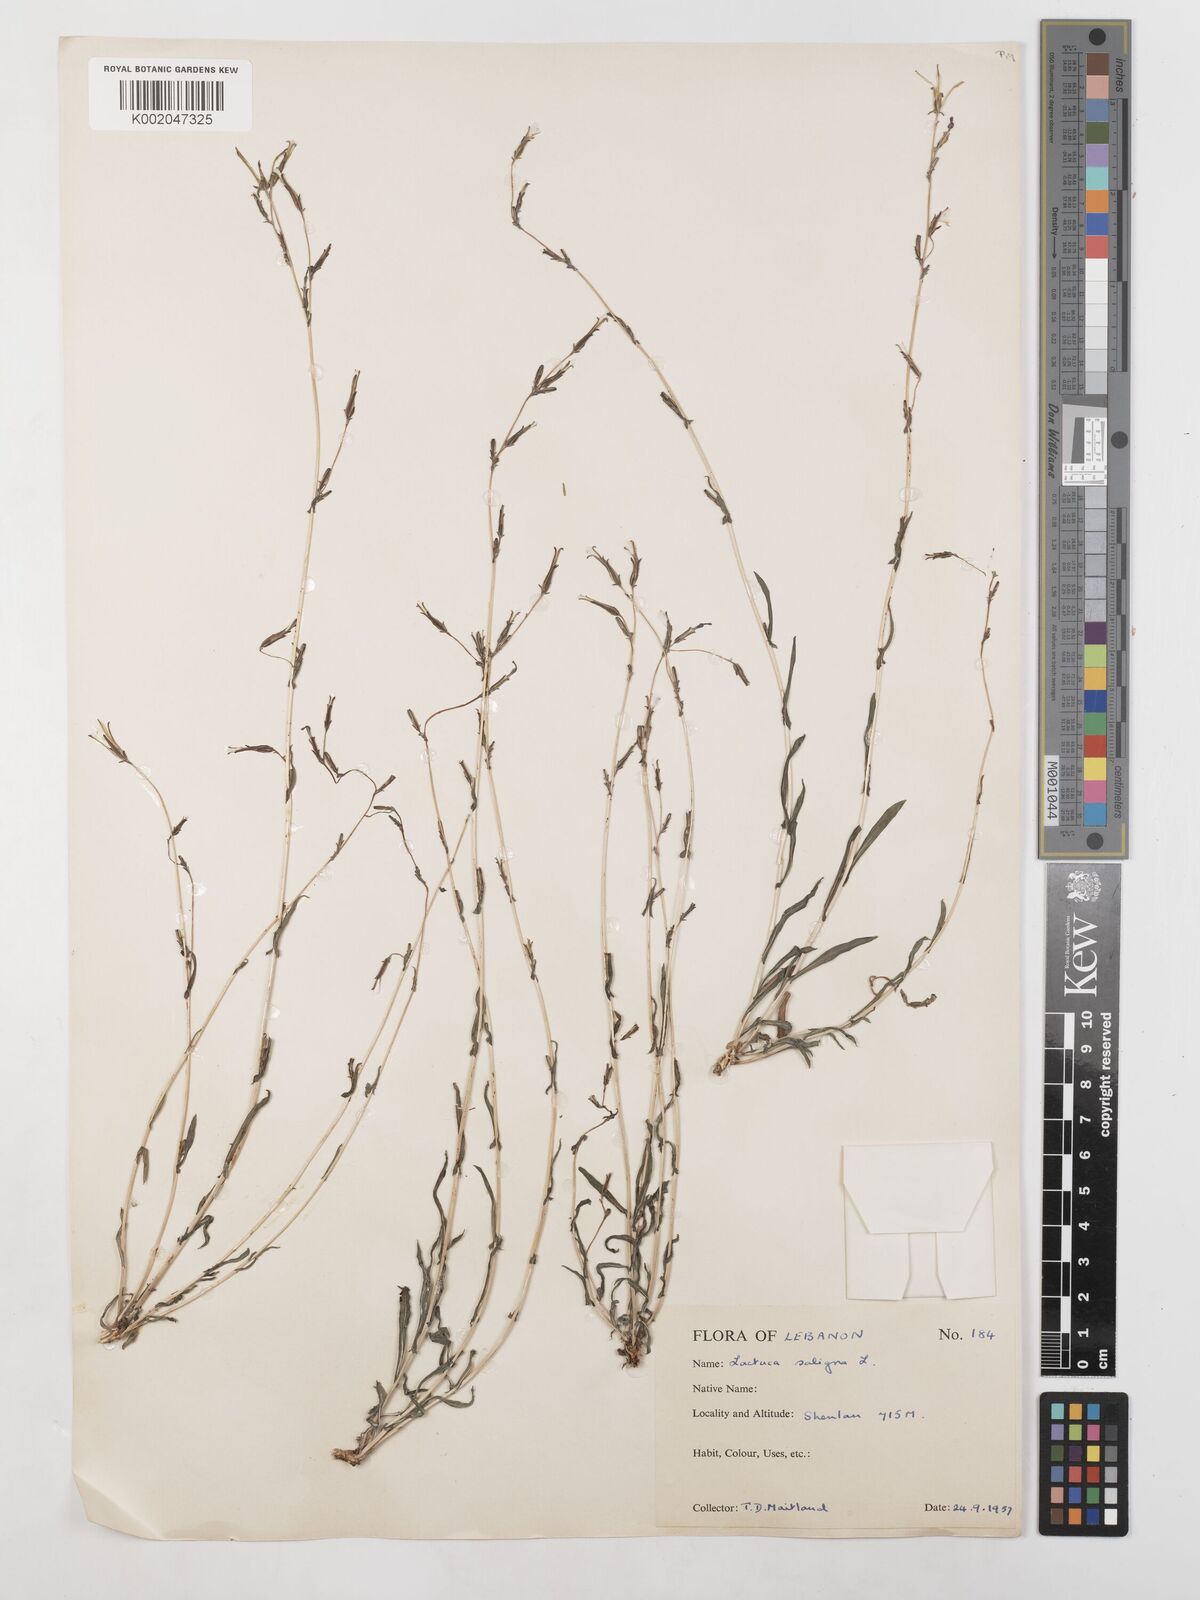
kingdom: Plantae
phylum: Tracheophyta
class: Magnoliopsida
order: Asterales
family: Asteraceae
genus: Lactuca
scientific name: Lactuca saligna
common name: Wild lettuce
